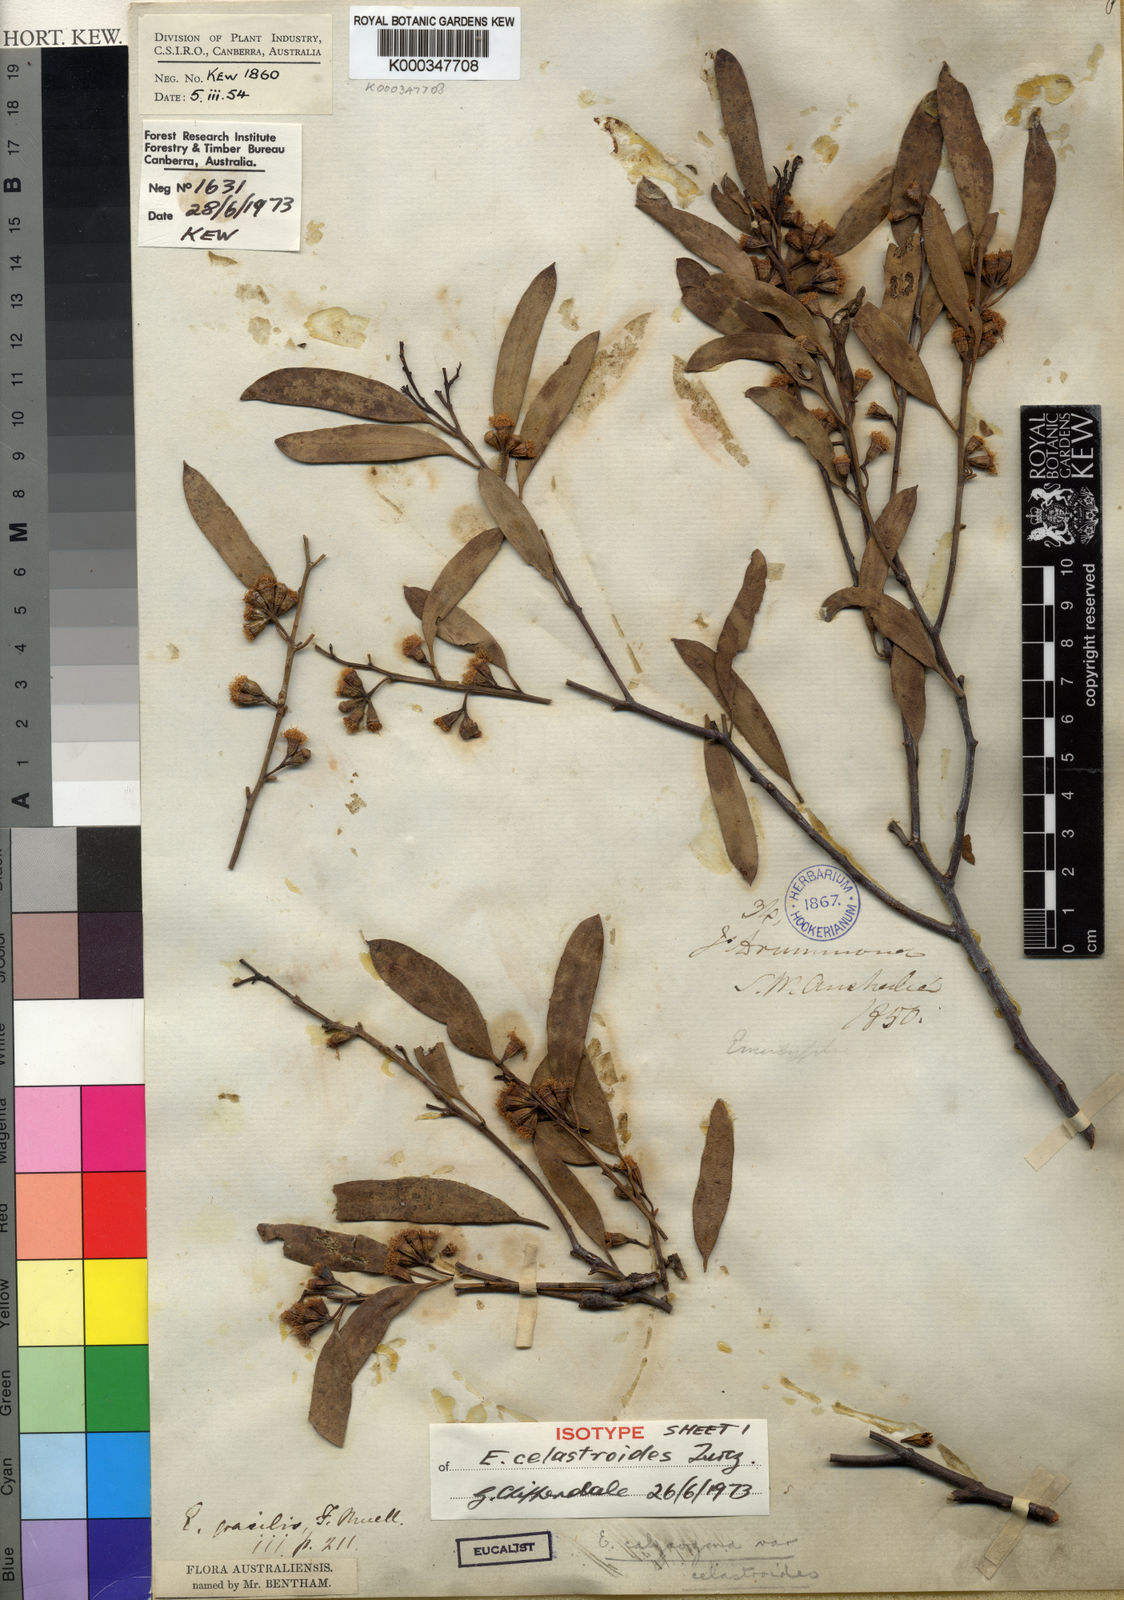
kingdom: Plantae
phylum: Tracheophyta
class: Magnoliopsida
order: Myrtales
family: Myrtaceae
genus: Eucalyptus
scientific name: Eucalyptus celastroides
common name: Mirret
